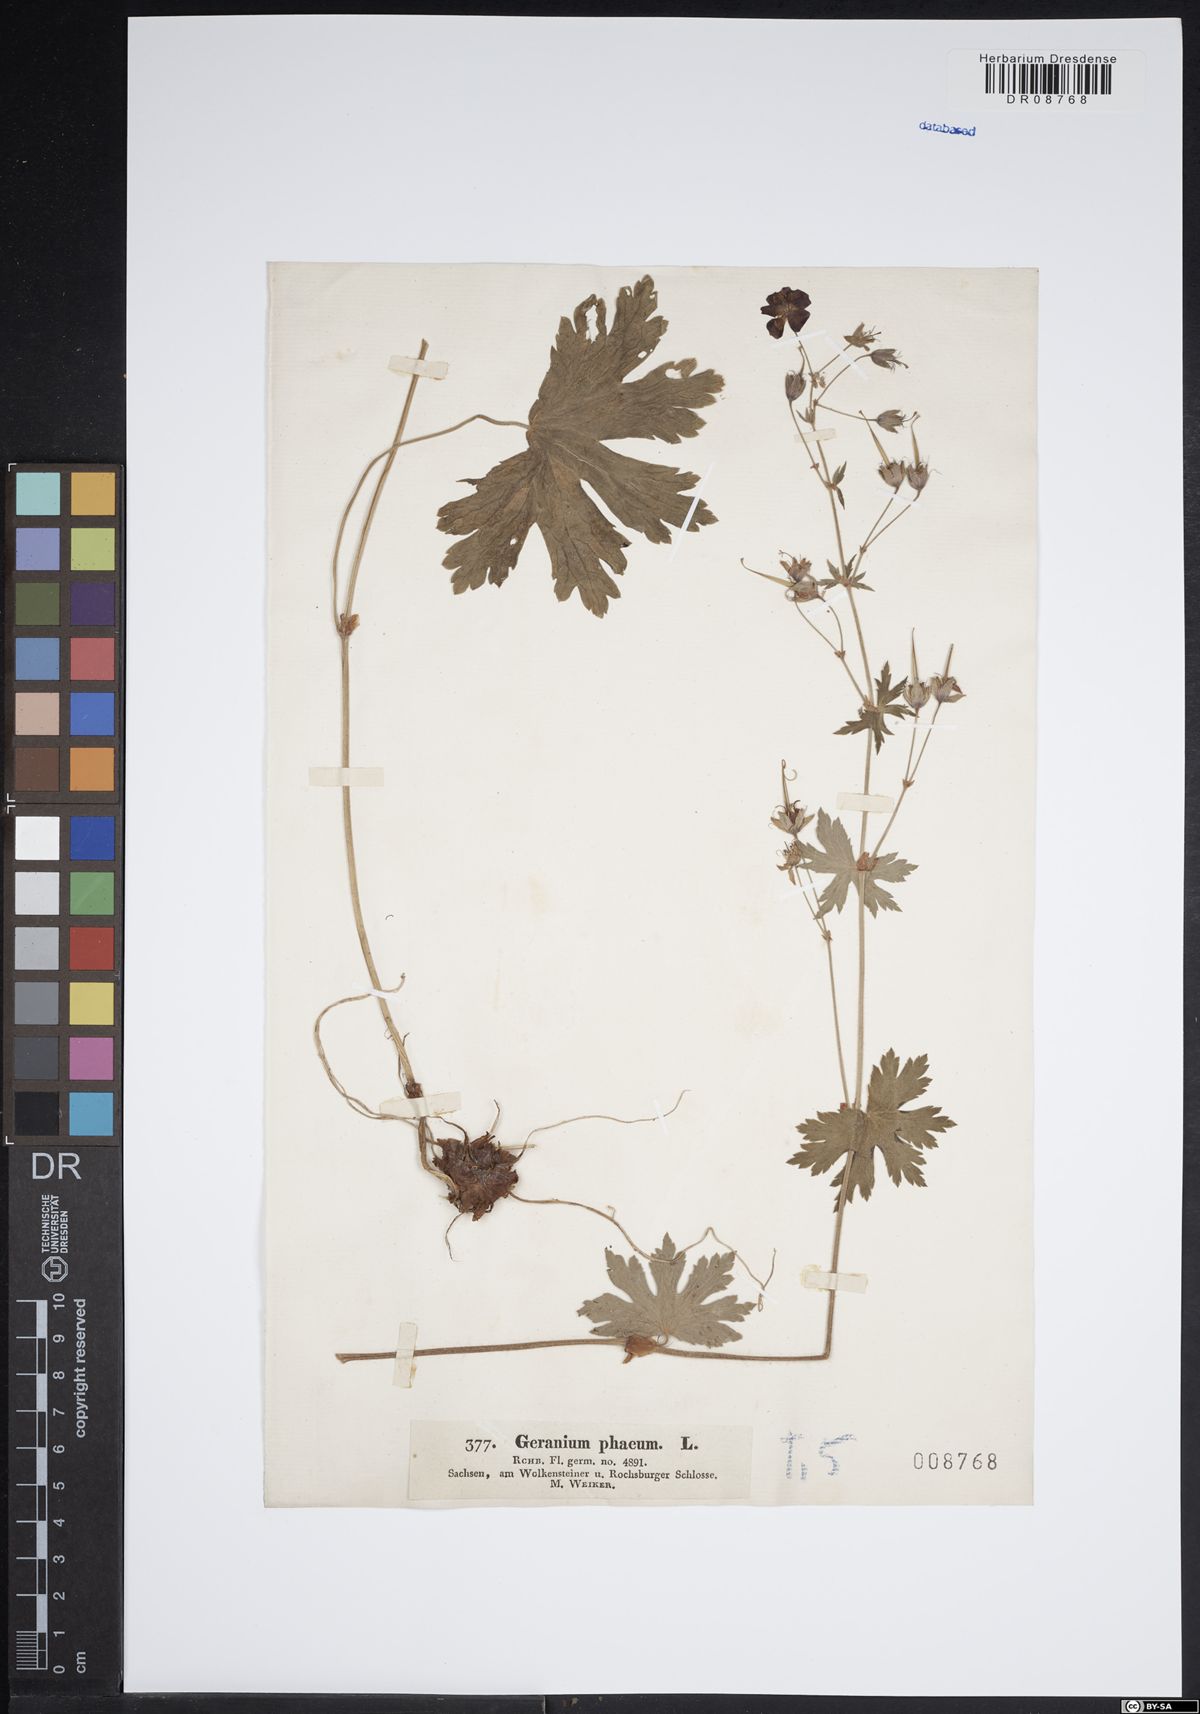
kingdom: Plantae
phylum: Tracheophyta
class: Magnoliopsida
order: Geraniales
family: Geraniaceae
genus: Geranium
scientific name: Geranium phaeum
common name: Dusky crane's-bill
